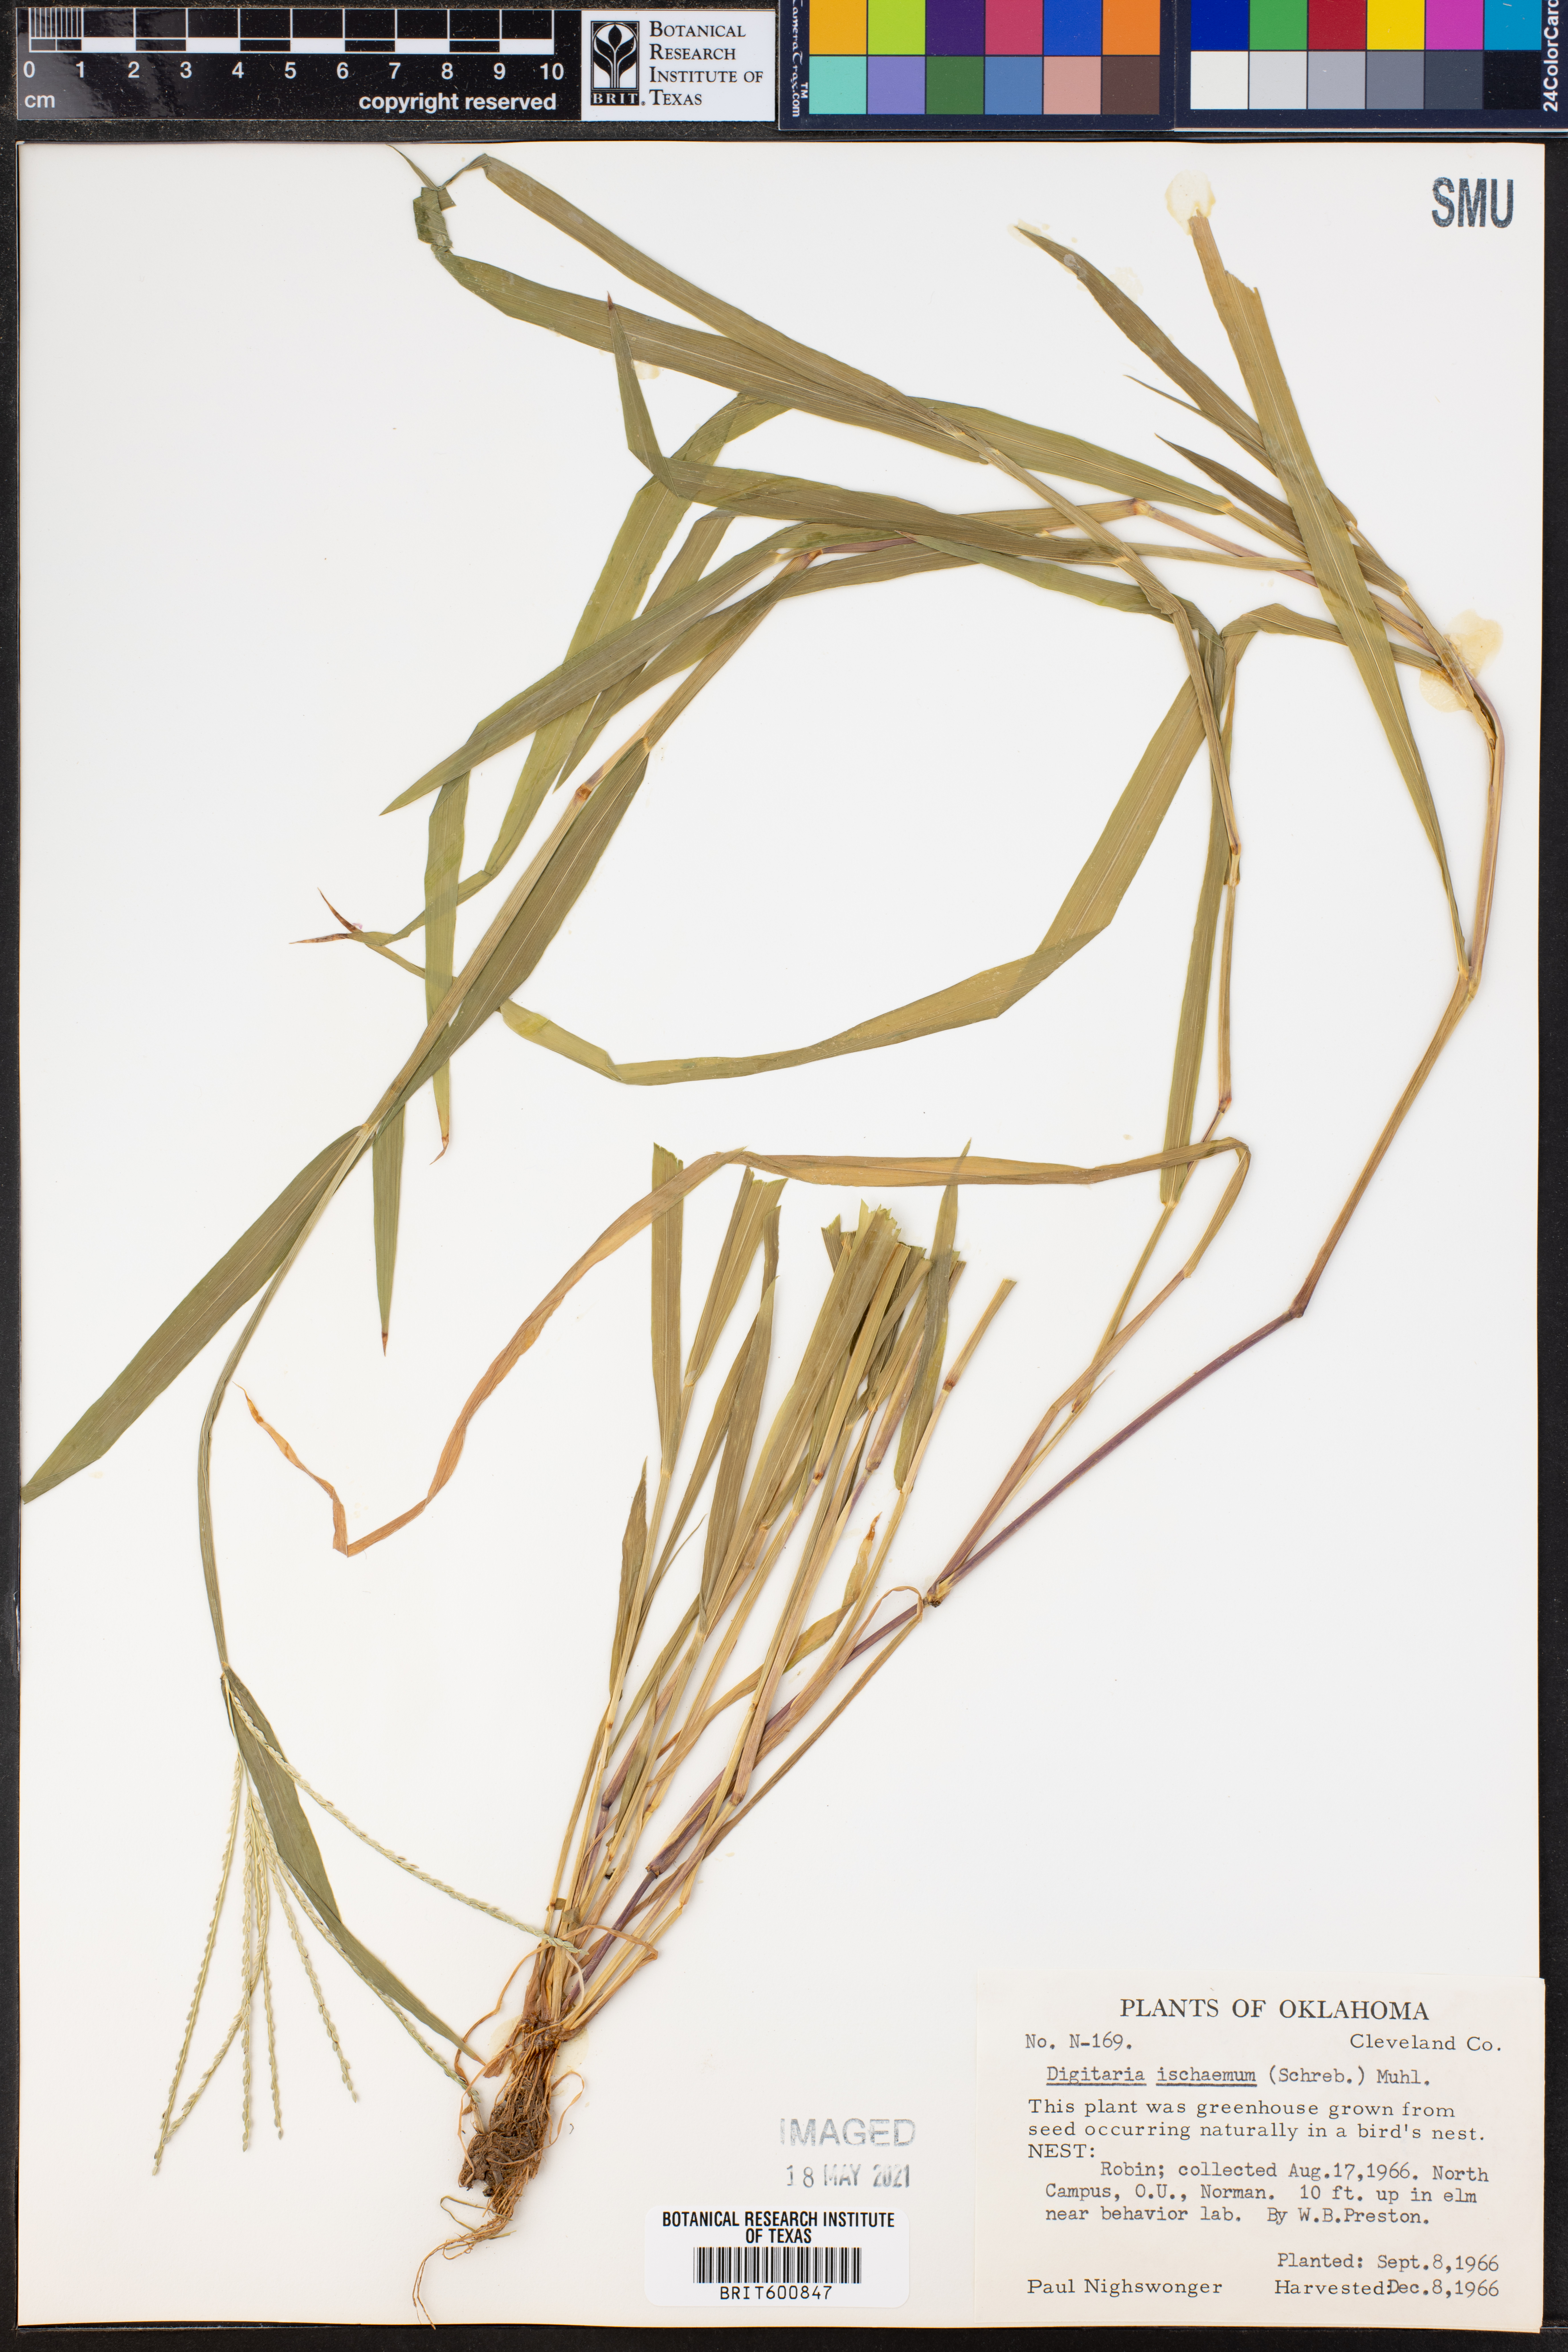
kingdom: Plantae
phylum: Tracheophyta
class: Liliopsida
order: Poales
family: Poaceae
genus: Digitaria
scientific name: Digitaria ischaemum
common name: Smooth crabgrass
